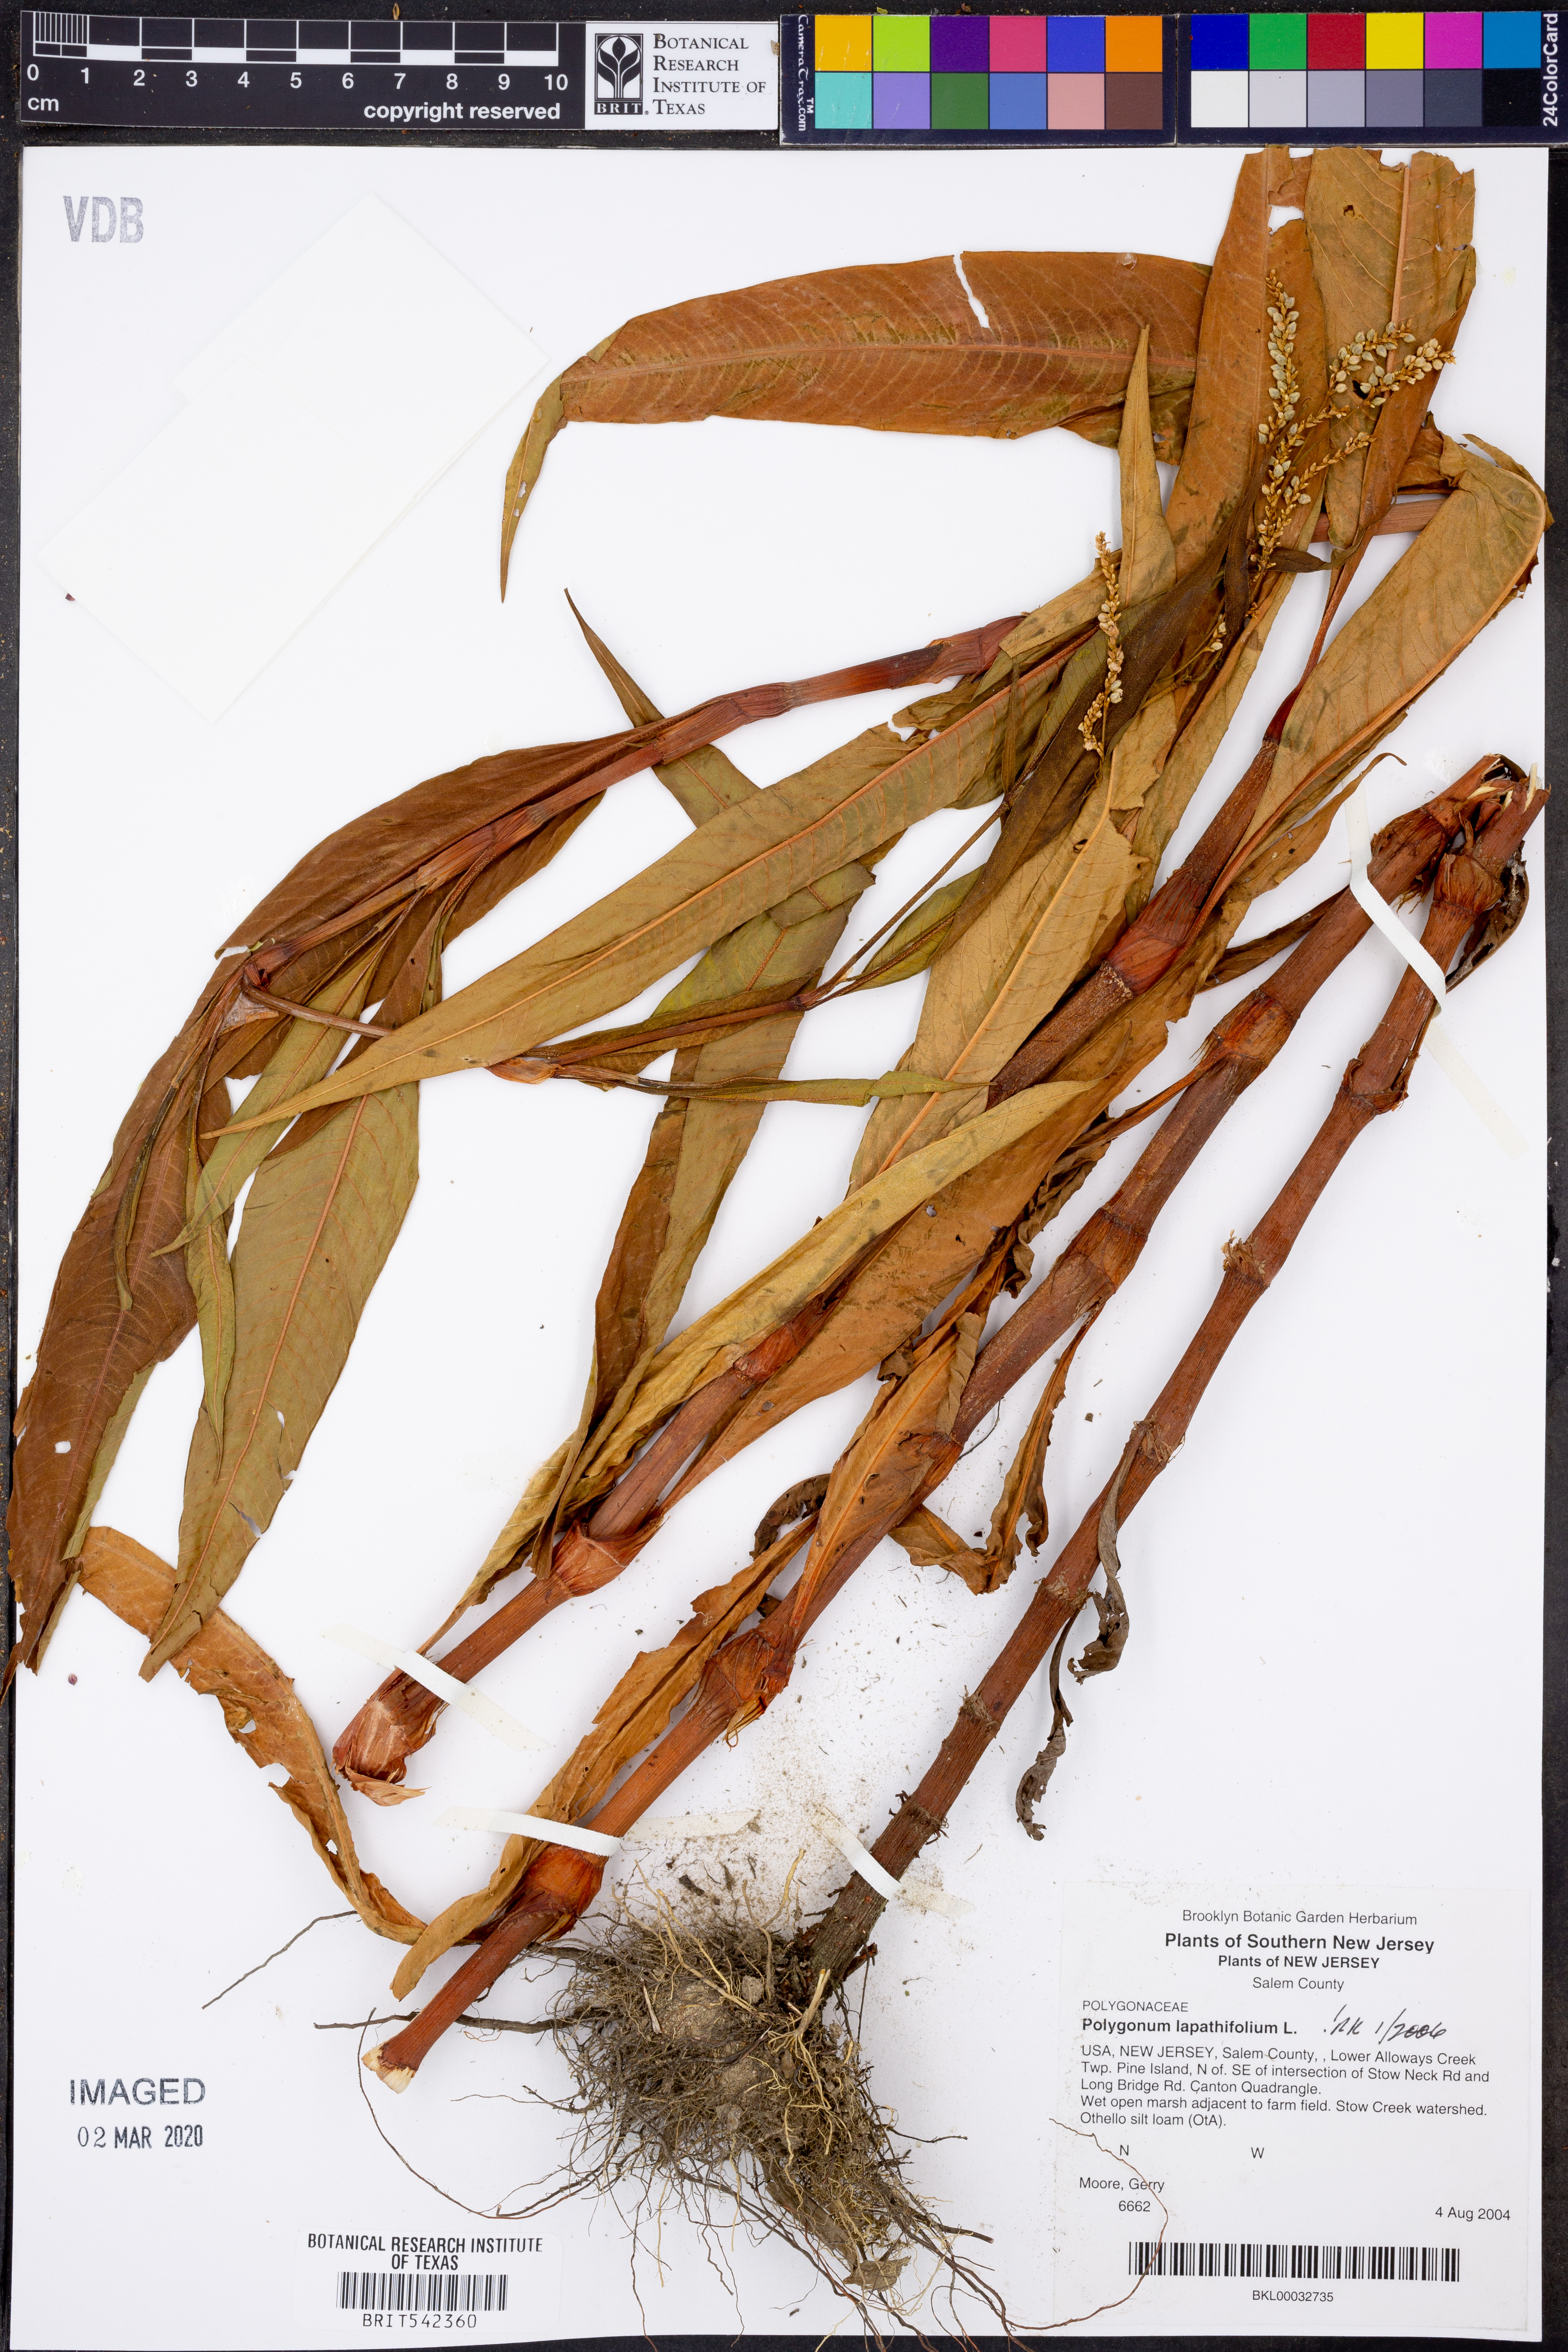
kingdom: Plantae
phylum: Tracheophyta
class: Magnoliopsida
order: Caryophyllales
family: Polygonaceae
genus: Persicaria
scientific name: Persicaria lapathifolia
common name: Curlytop knotweed
